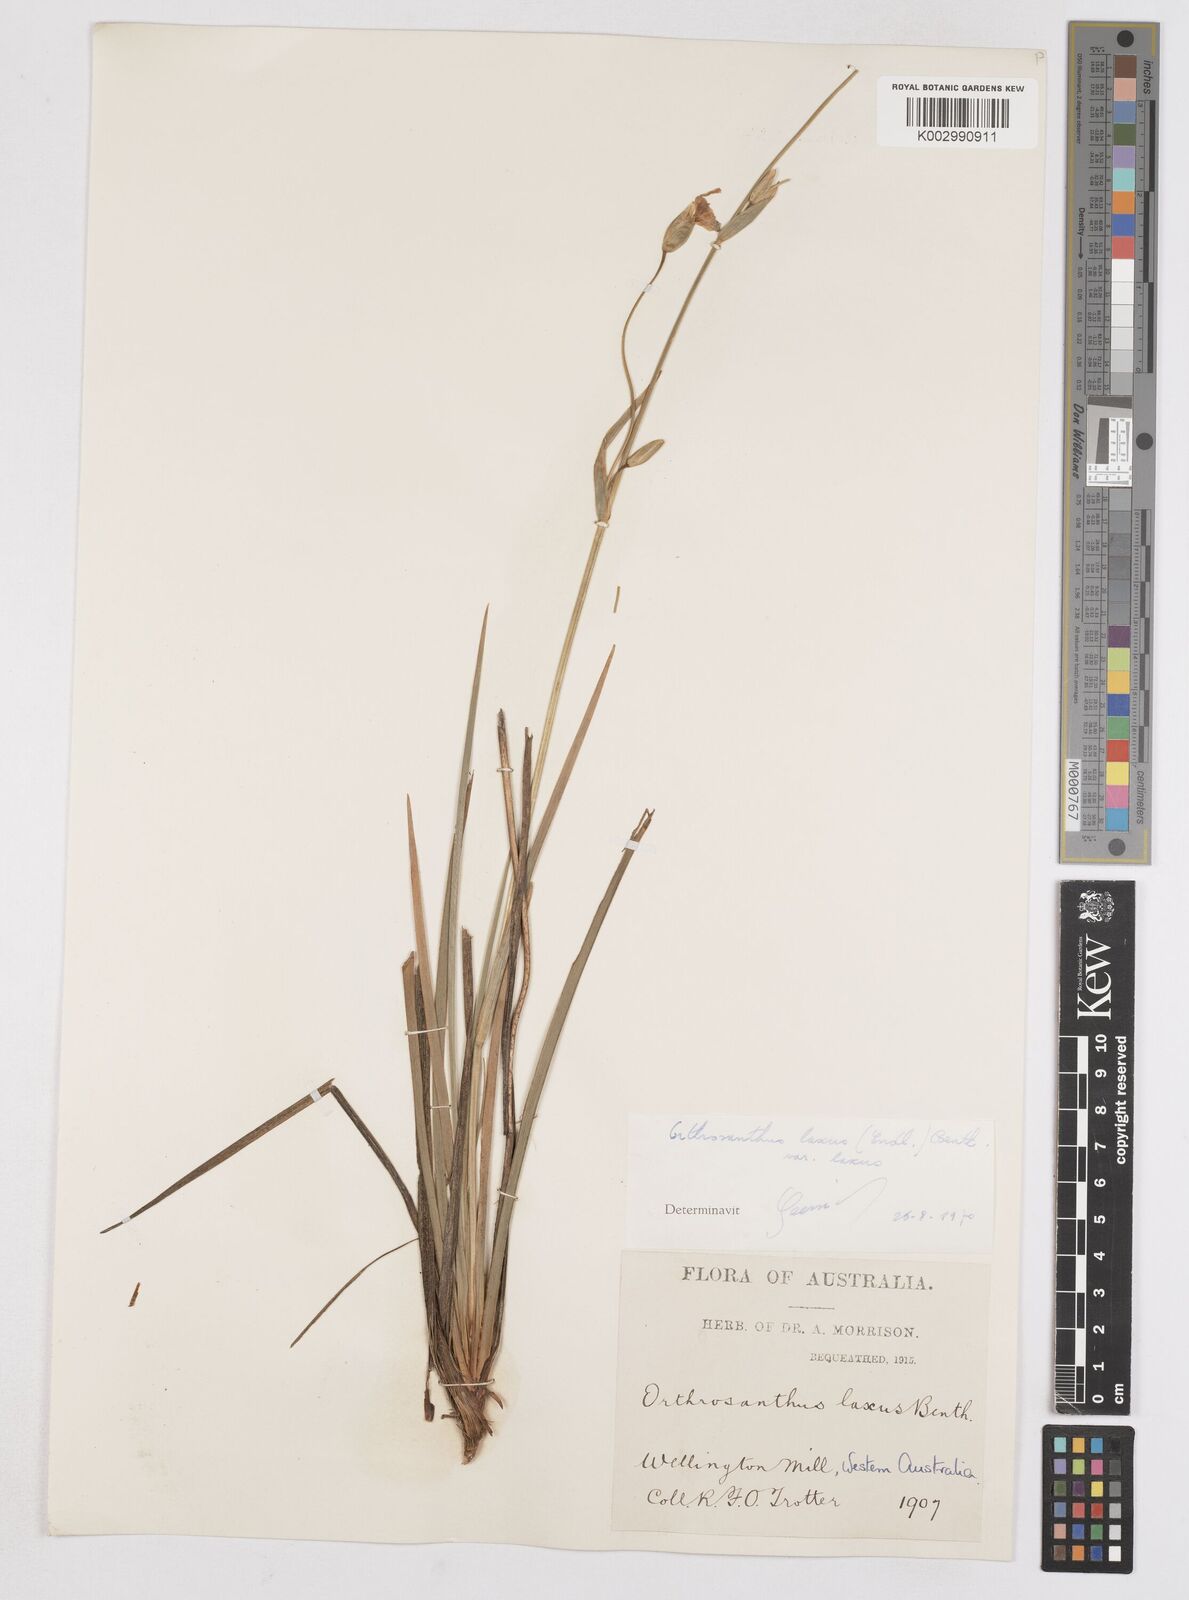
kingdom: Plantae
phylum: Tracheophyta
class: Liliopsida
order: Asparagales
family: Iridaceae
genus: Orthrosanthus
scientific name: Orthrosanthus laxus
